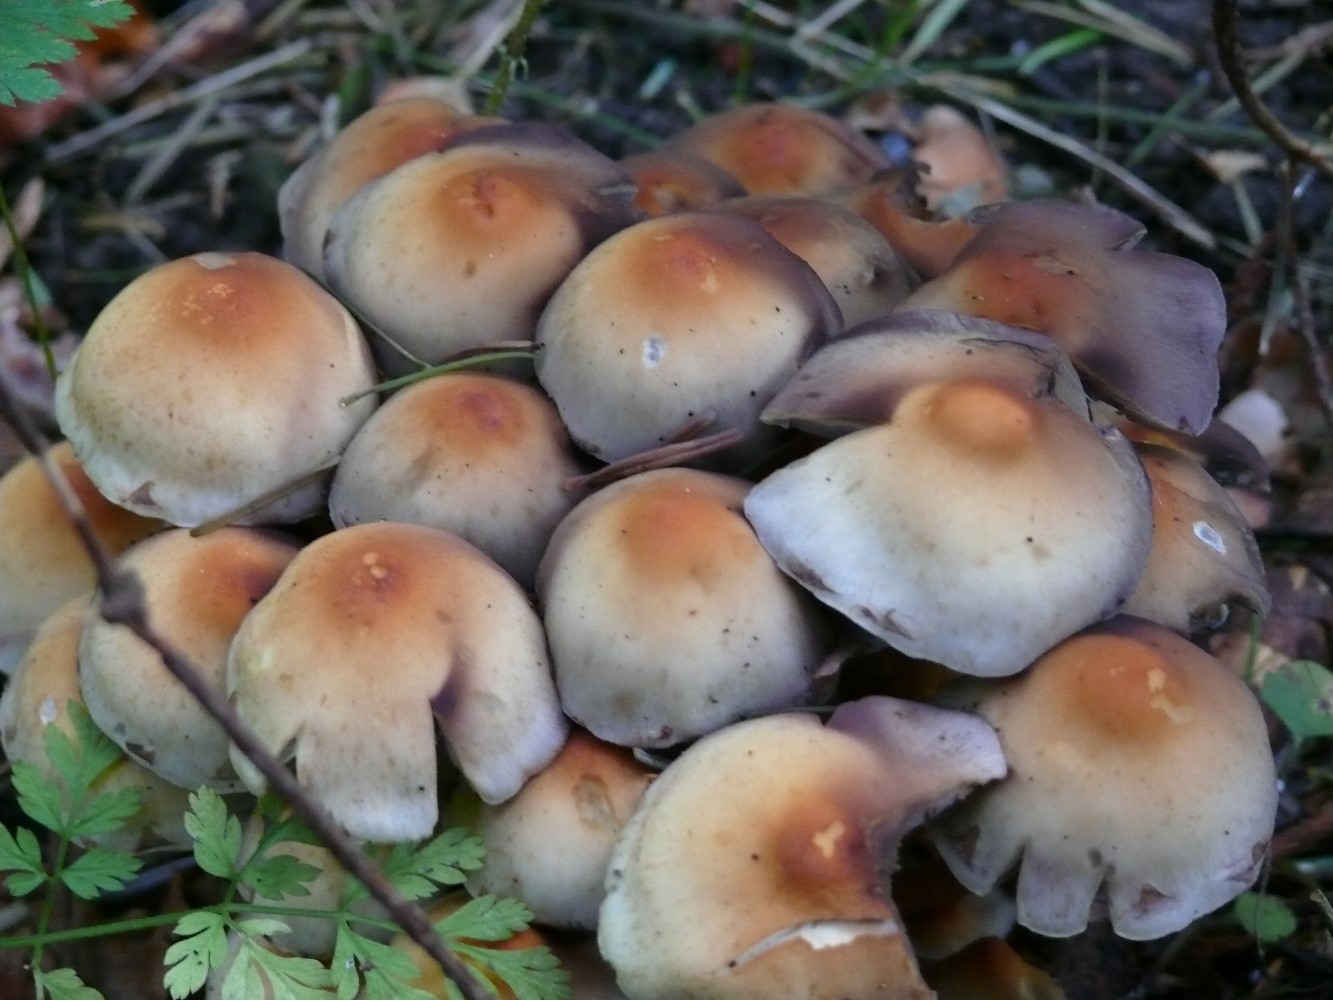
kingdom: Fungi
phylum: Basidiomycota
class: Agaricomycetes
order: Agaricales
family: Strophariaceae
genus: Hypholoma
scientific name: Hypholoma fasciculare
